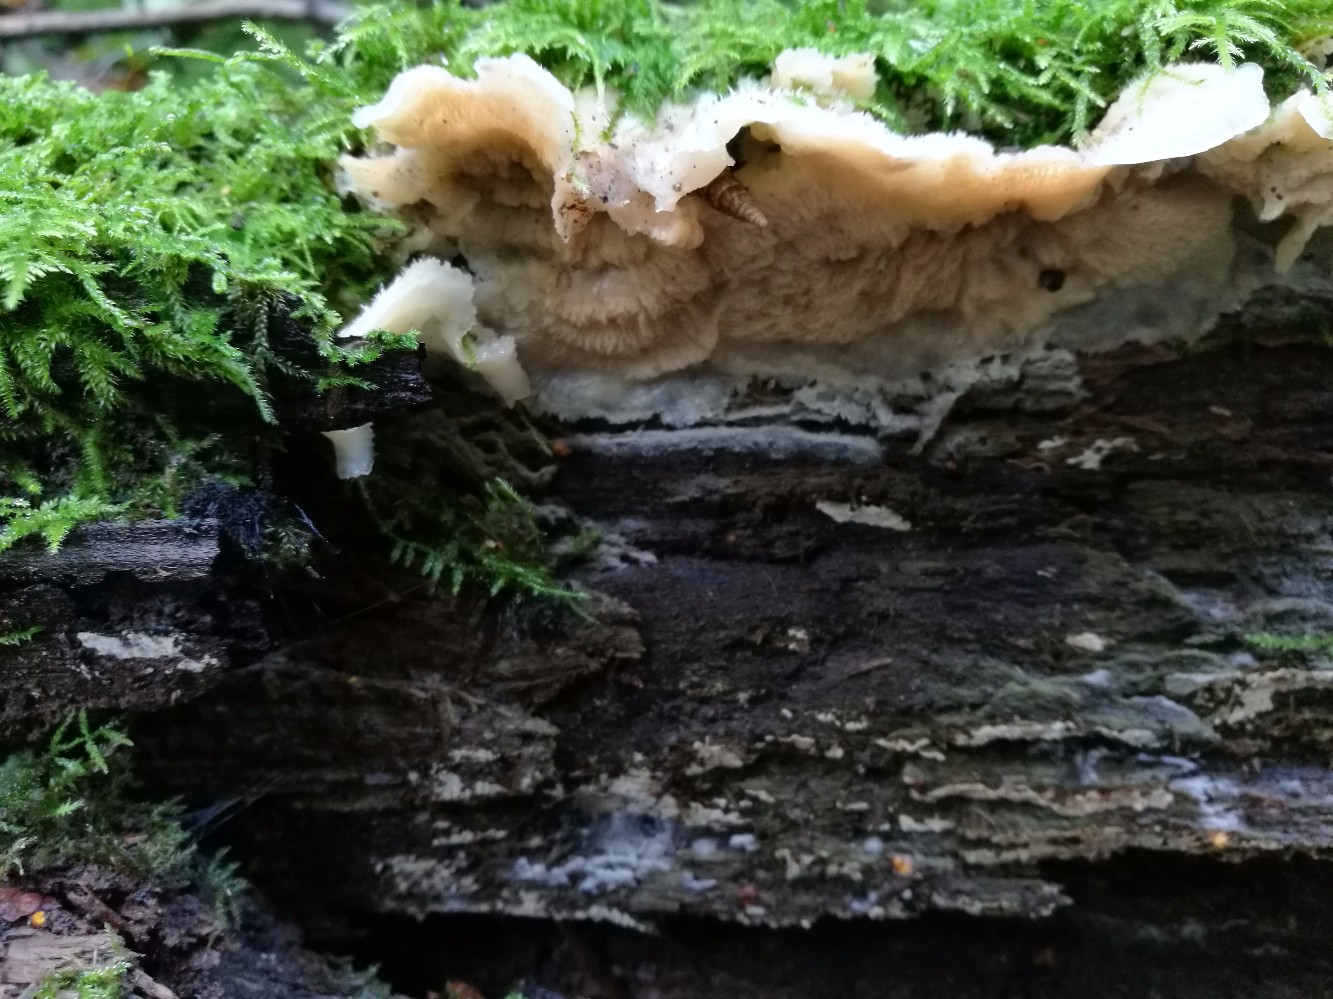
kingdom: Fungi
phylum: Basidiomycota
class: Agaricomycetes
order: Polyporales
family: Meruliaceae
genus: Phlebia
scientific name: Phlebia tremellosa
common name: bævrende åresvamp
